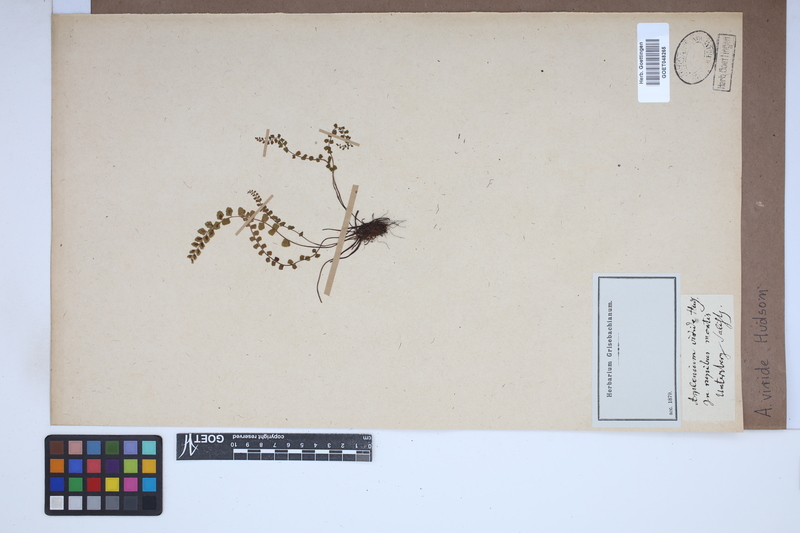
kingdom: Plantae
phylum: Tracheophyta
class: Polypodiopsida
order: Polypodiales
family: Aspleniaceae
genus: Asplenium
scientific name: Asplenium viride
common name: Green spleenwort
